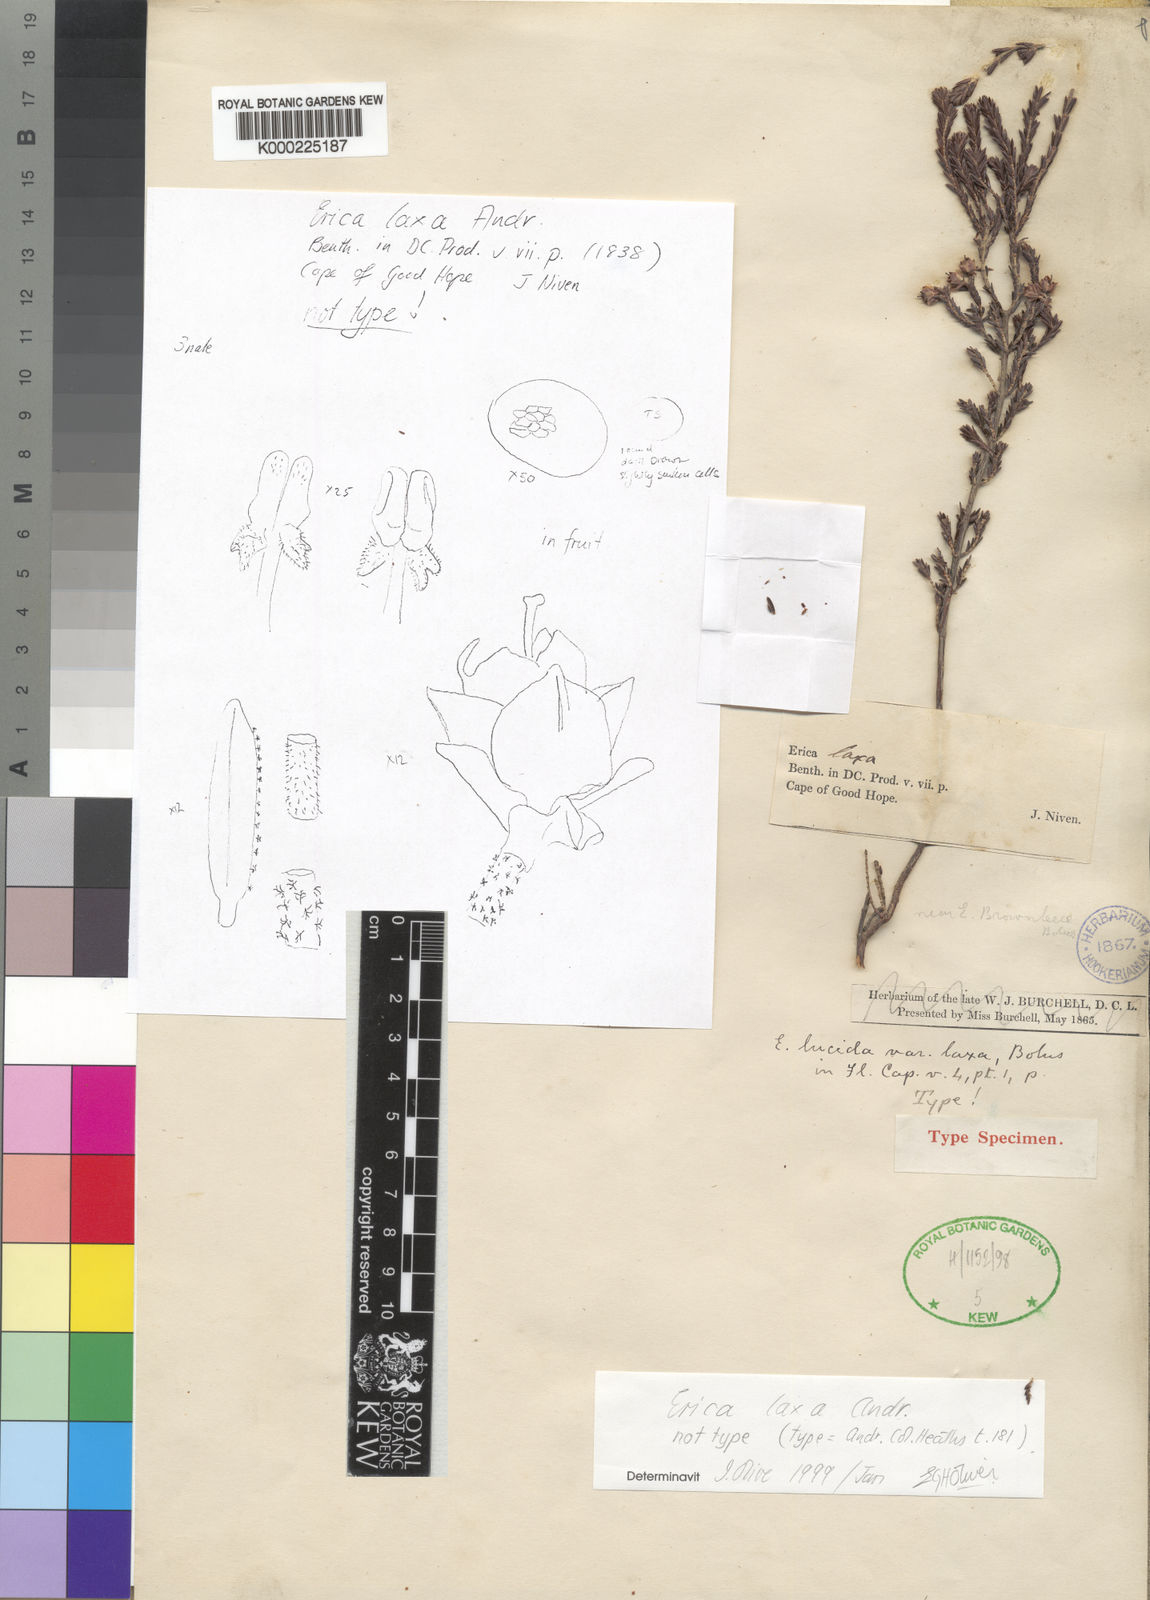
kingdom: Plantae
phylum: Tracheophyta
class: Magnoliopsida
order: Ericales
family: Ericaceae
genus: Erica
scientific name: Erica lucida
